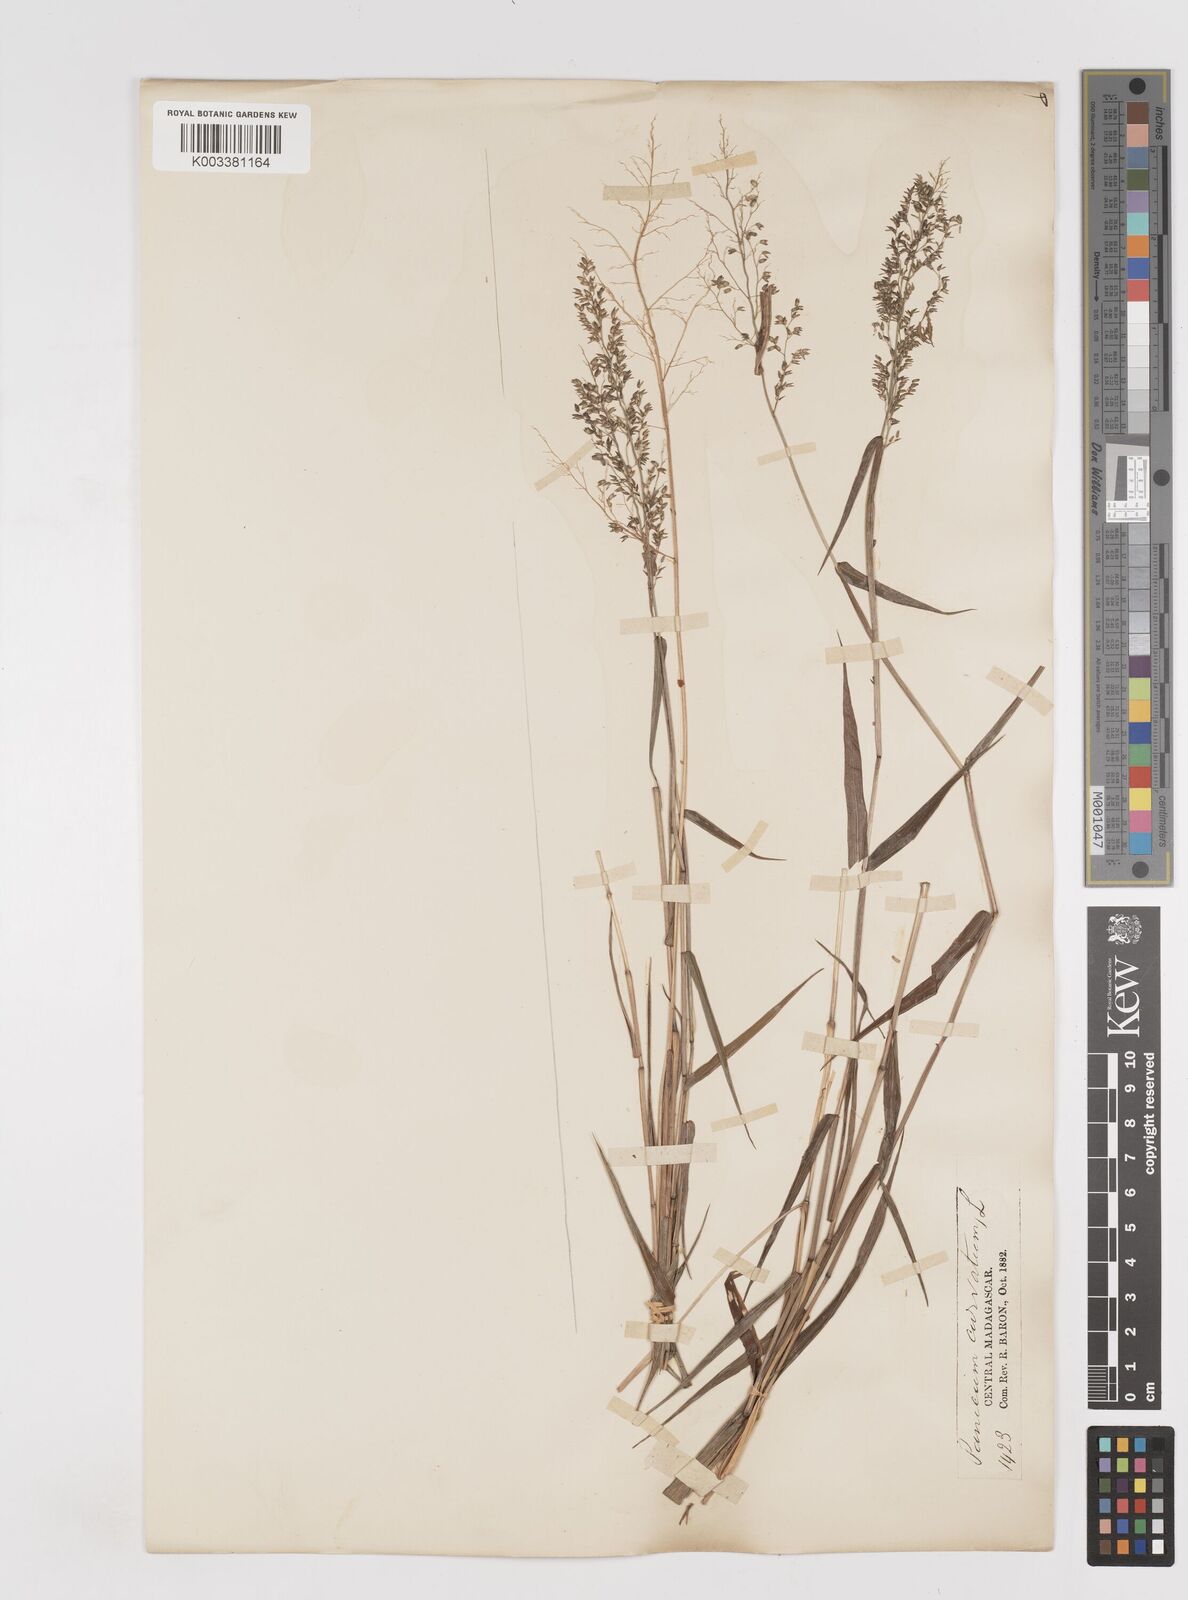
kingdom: Plantae
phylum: Tracheophyta
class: Liliopsida
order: Poales
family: Poaceae
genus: Sacciolepis
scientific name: Sacciolepis curvata
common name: Forest hood grass
